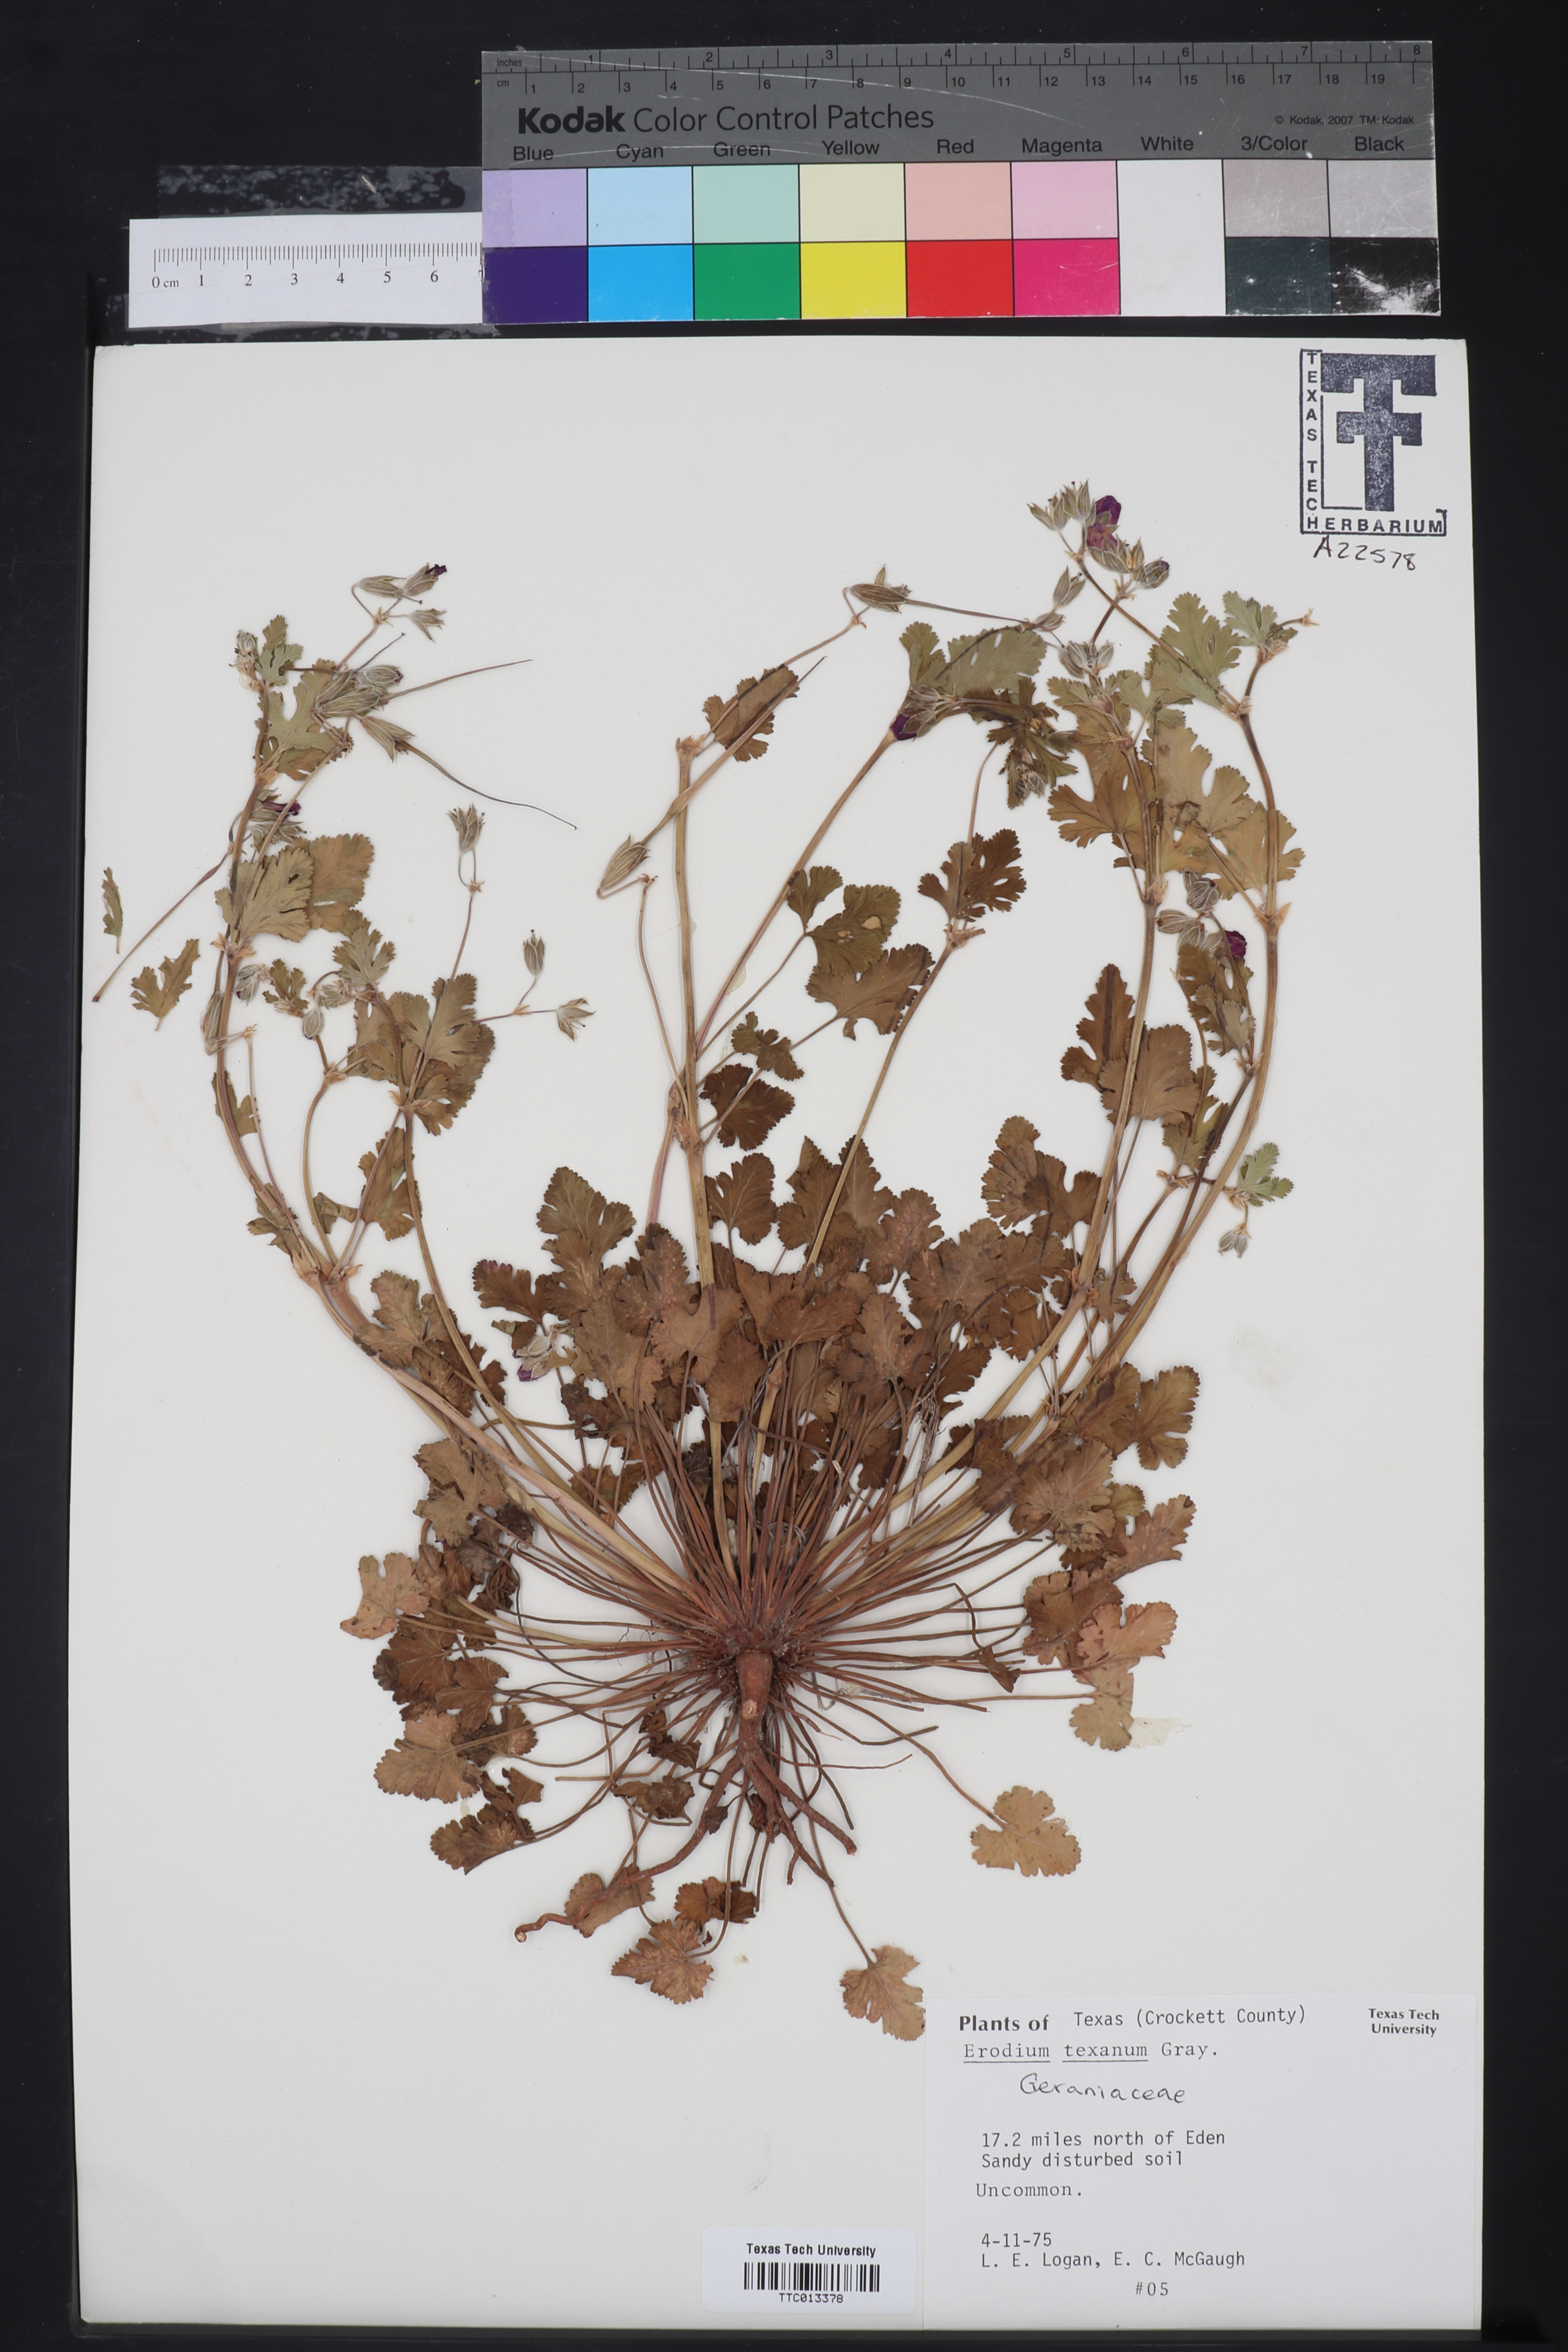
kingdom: Plantae
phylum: Tracheophyta
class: Magnoliopsida
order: Geraniales
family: Geraniaceae
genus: Erodium
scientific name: Erodium texanum
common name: Texas stork's-bill
